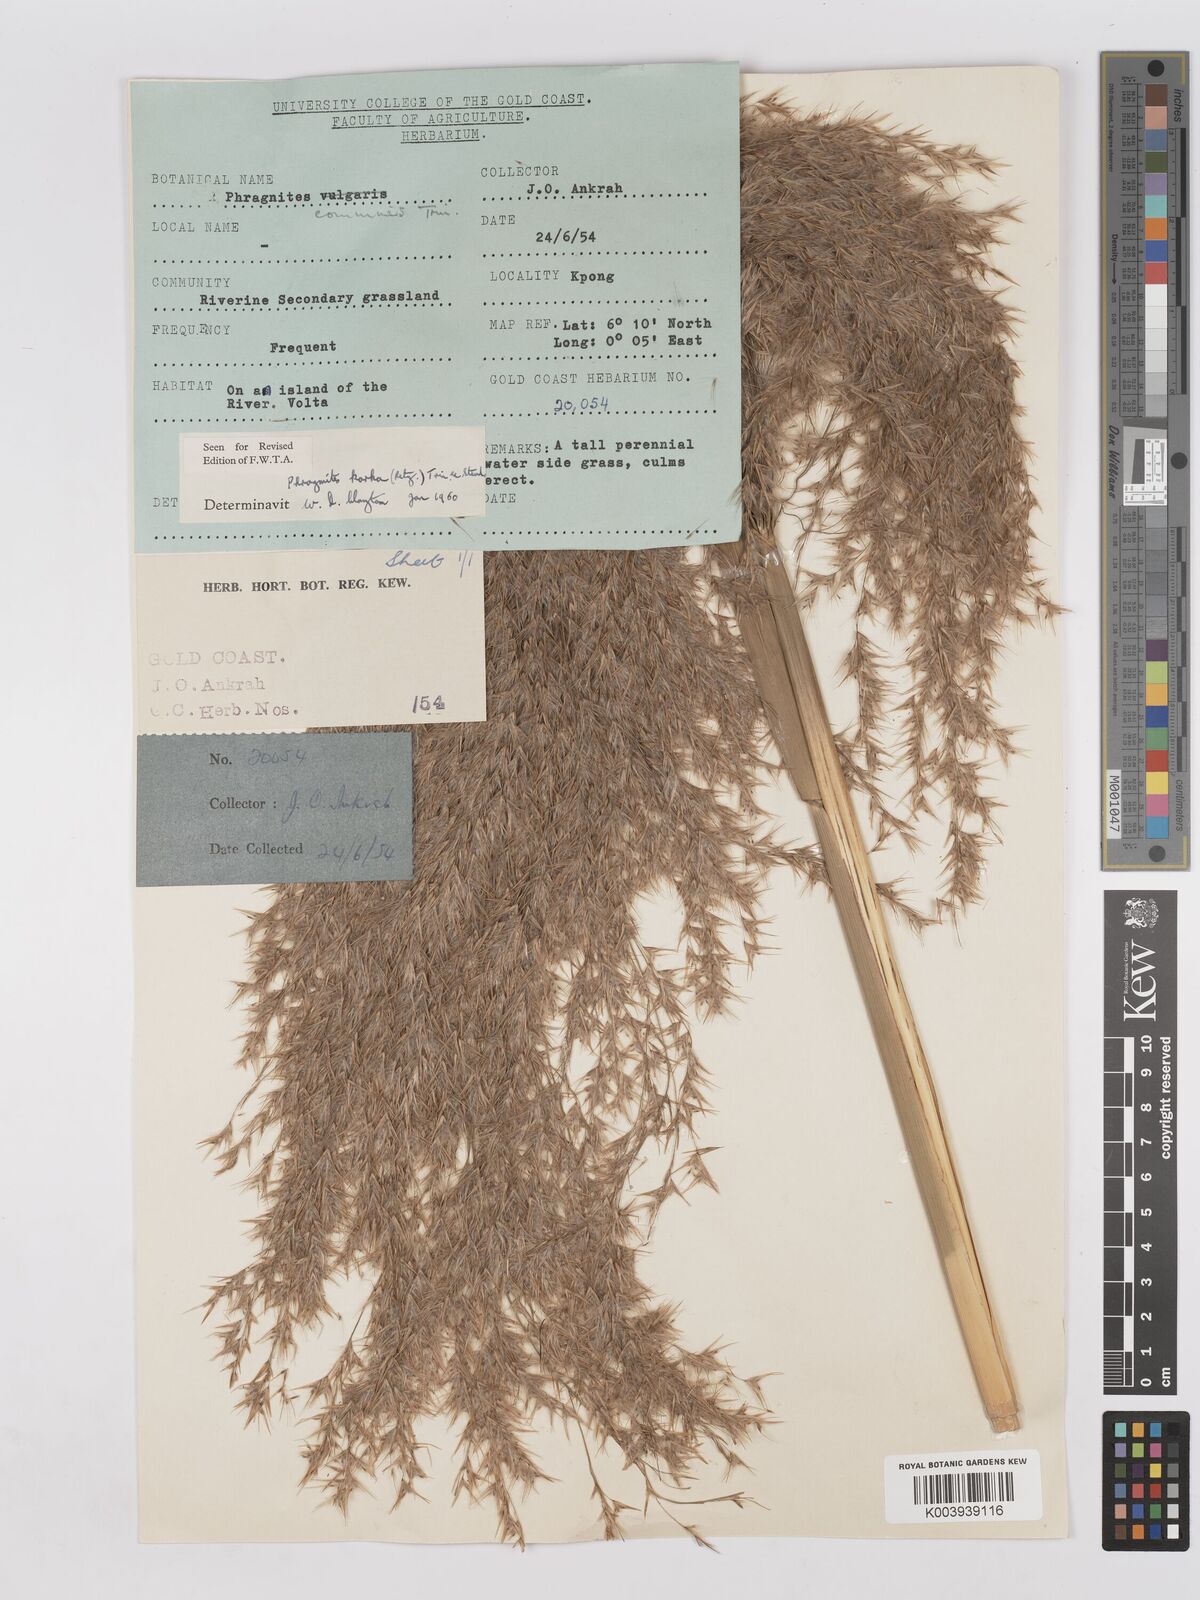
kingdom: Plantae
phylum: Tracheophyta
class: Liliopsida
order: Poales
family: Poaceae
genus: Phragmites
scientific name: Phragmites karka
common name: Tropical reed
